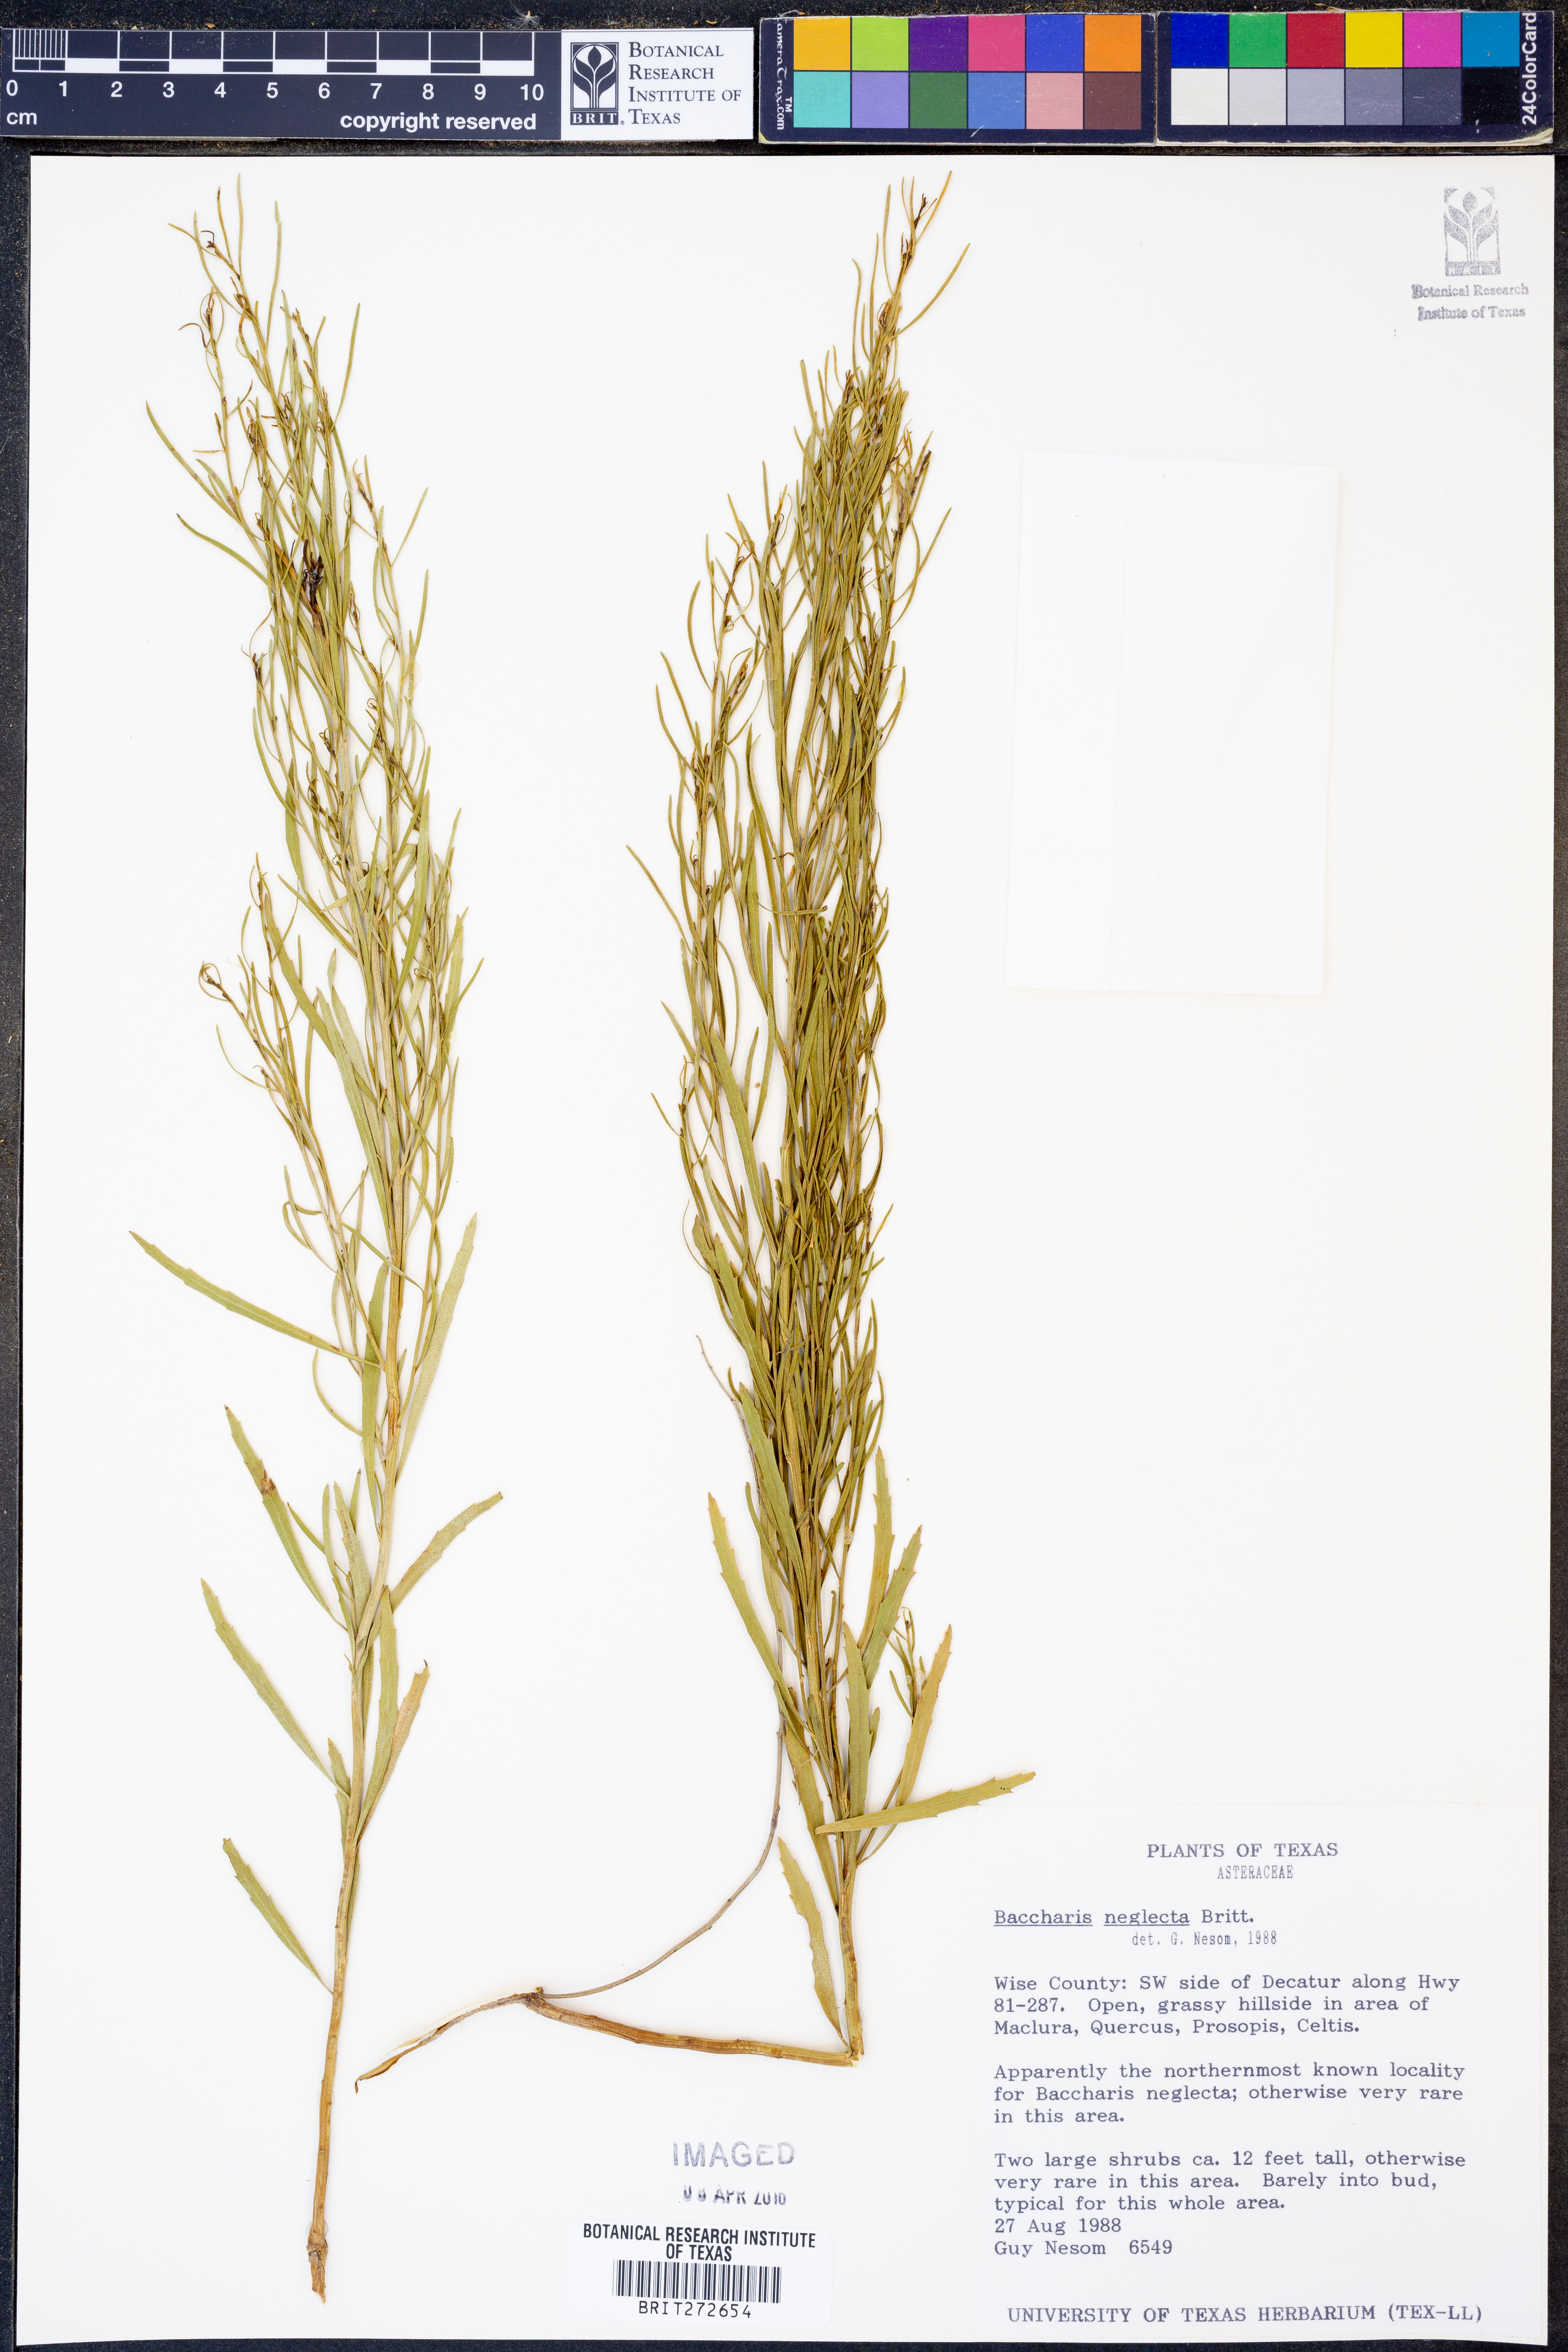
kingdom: Plantae
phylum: Tracheophyta
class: Magnoliopsida
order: Asterales
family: Asteraceae
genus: Baccharis
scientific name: Baccharis neglecta
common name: Roosevelt-weed
